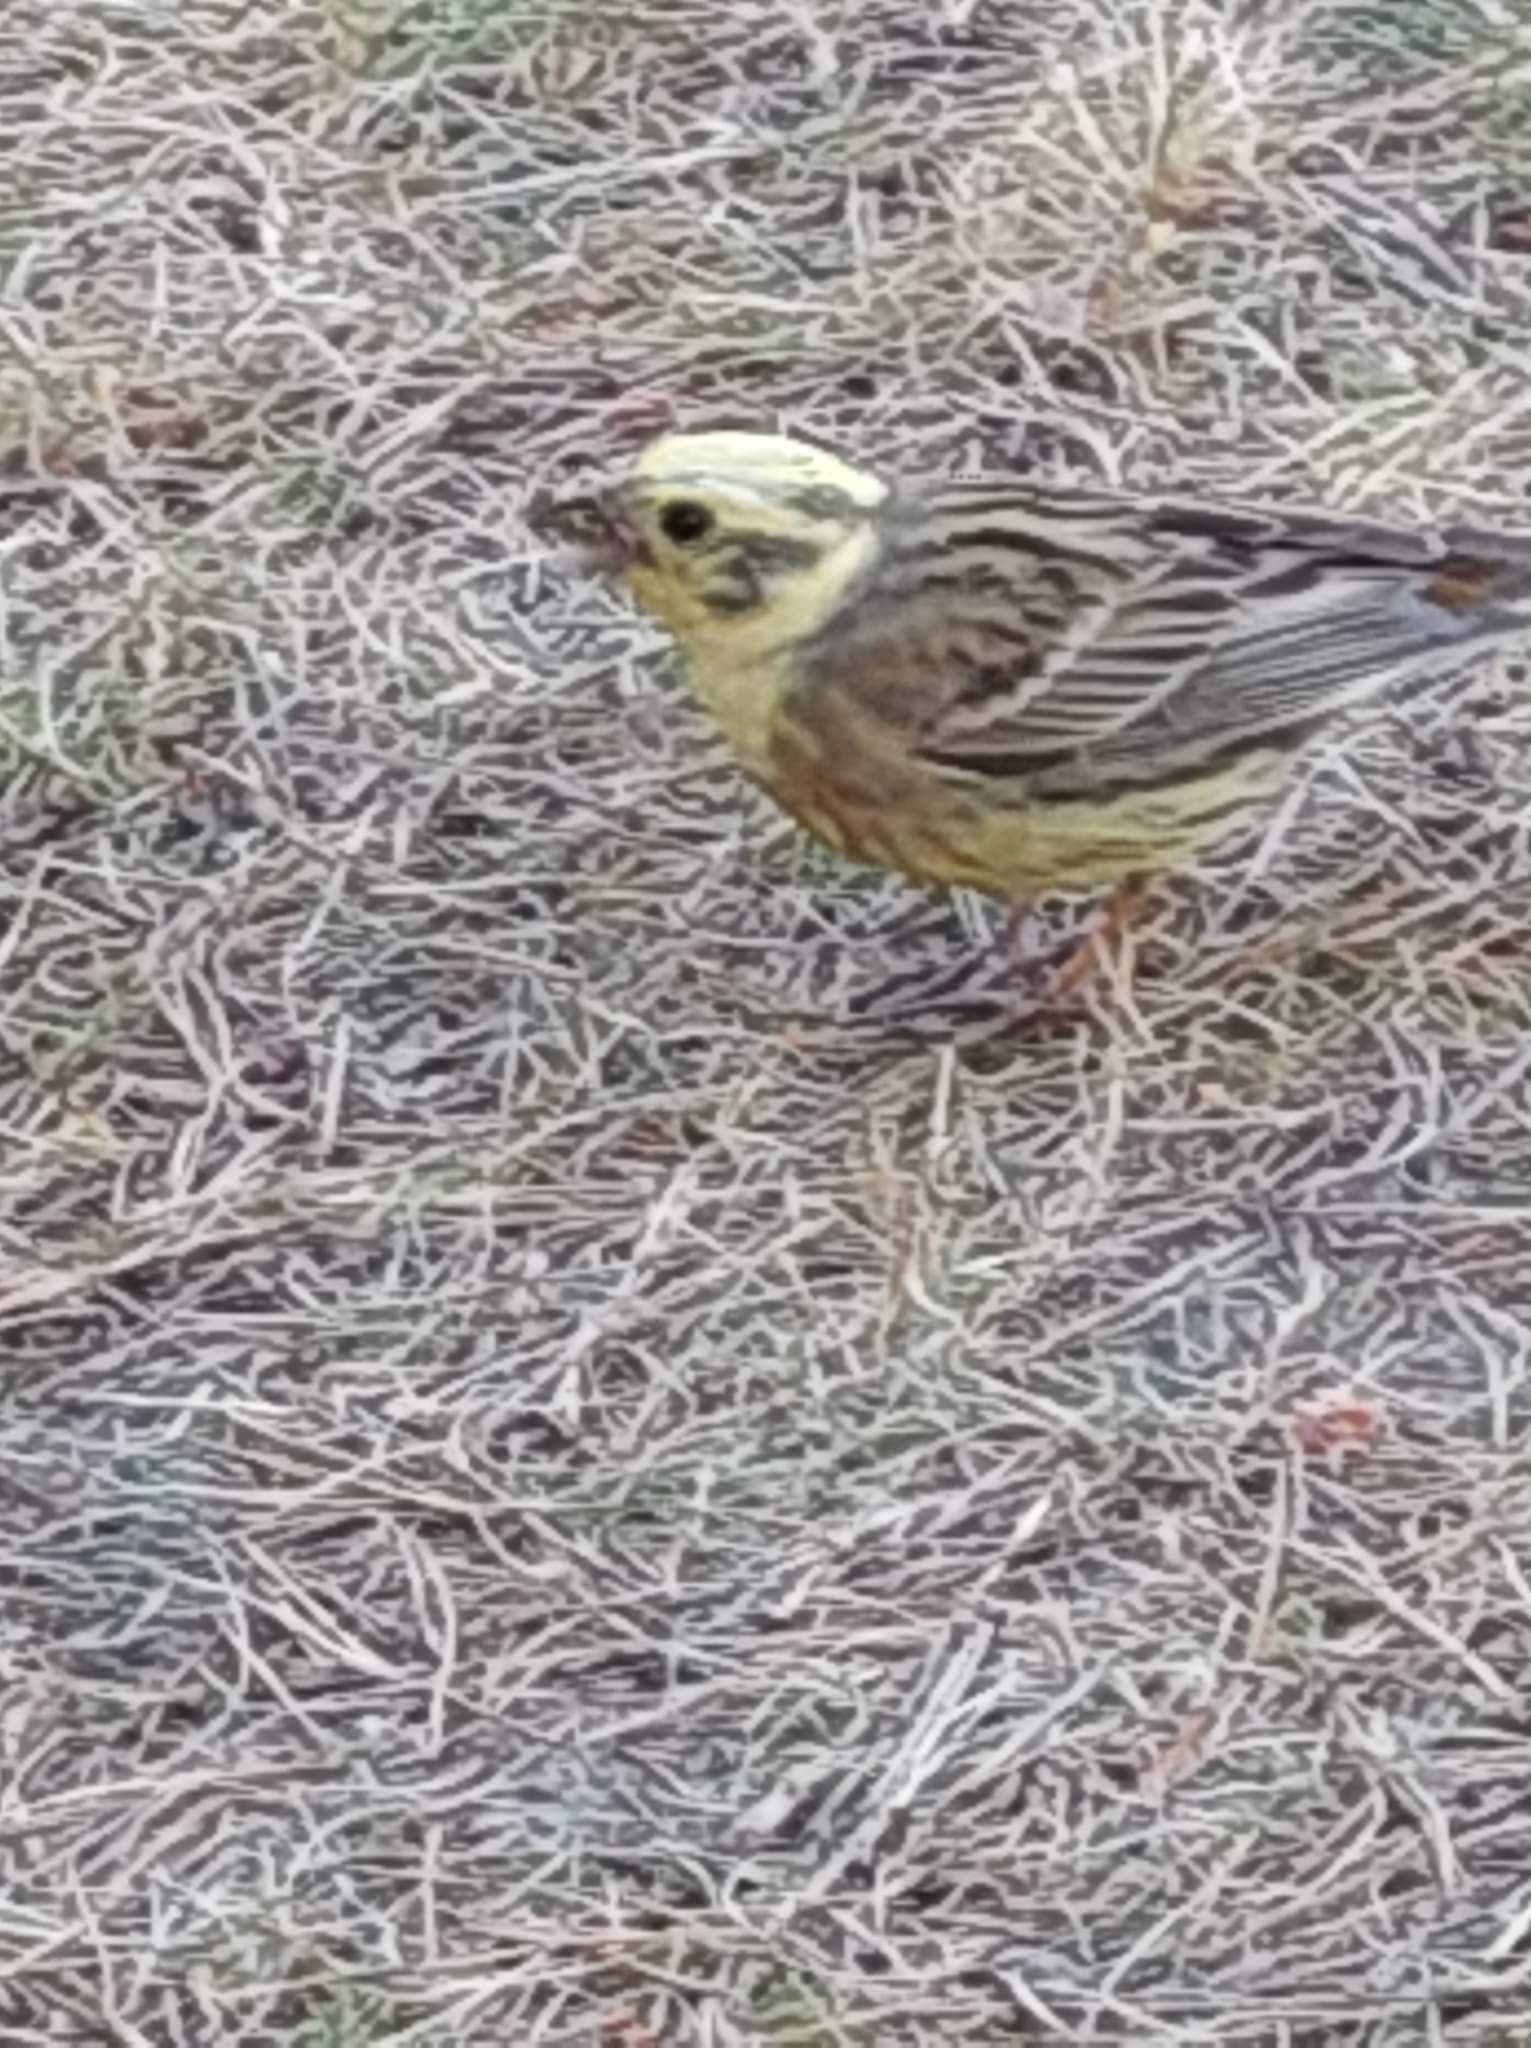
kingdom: Animalia
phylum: Chordata
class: Aves
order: Passeriformes
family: Emberizidae
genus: Emberiza
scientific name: Emberiza citrinella
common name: Gulspurv
